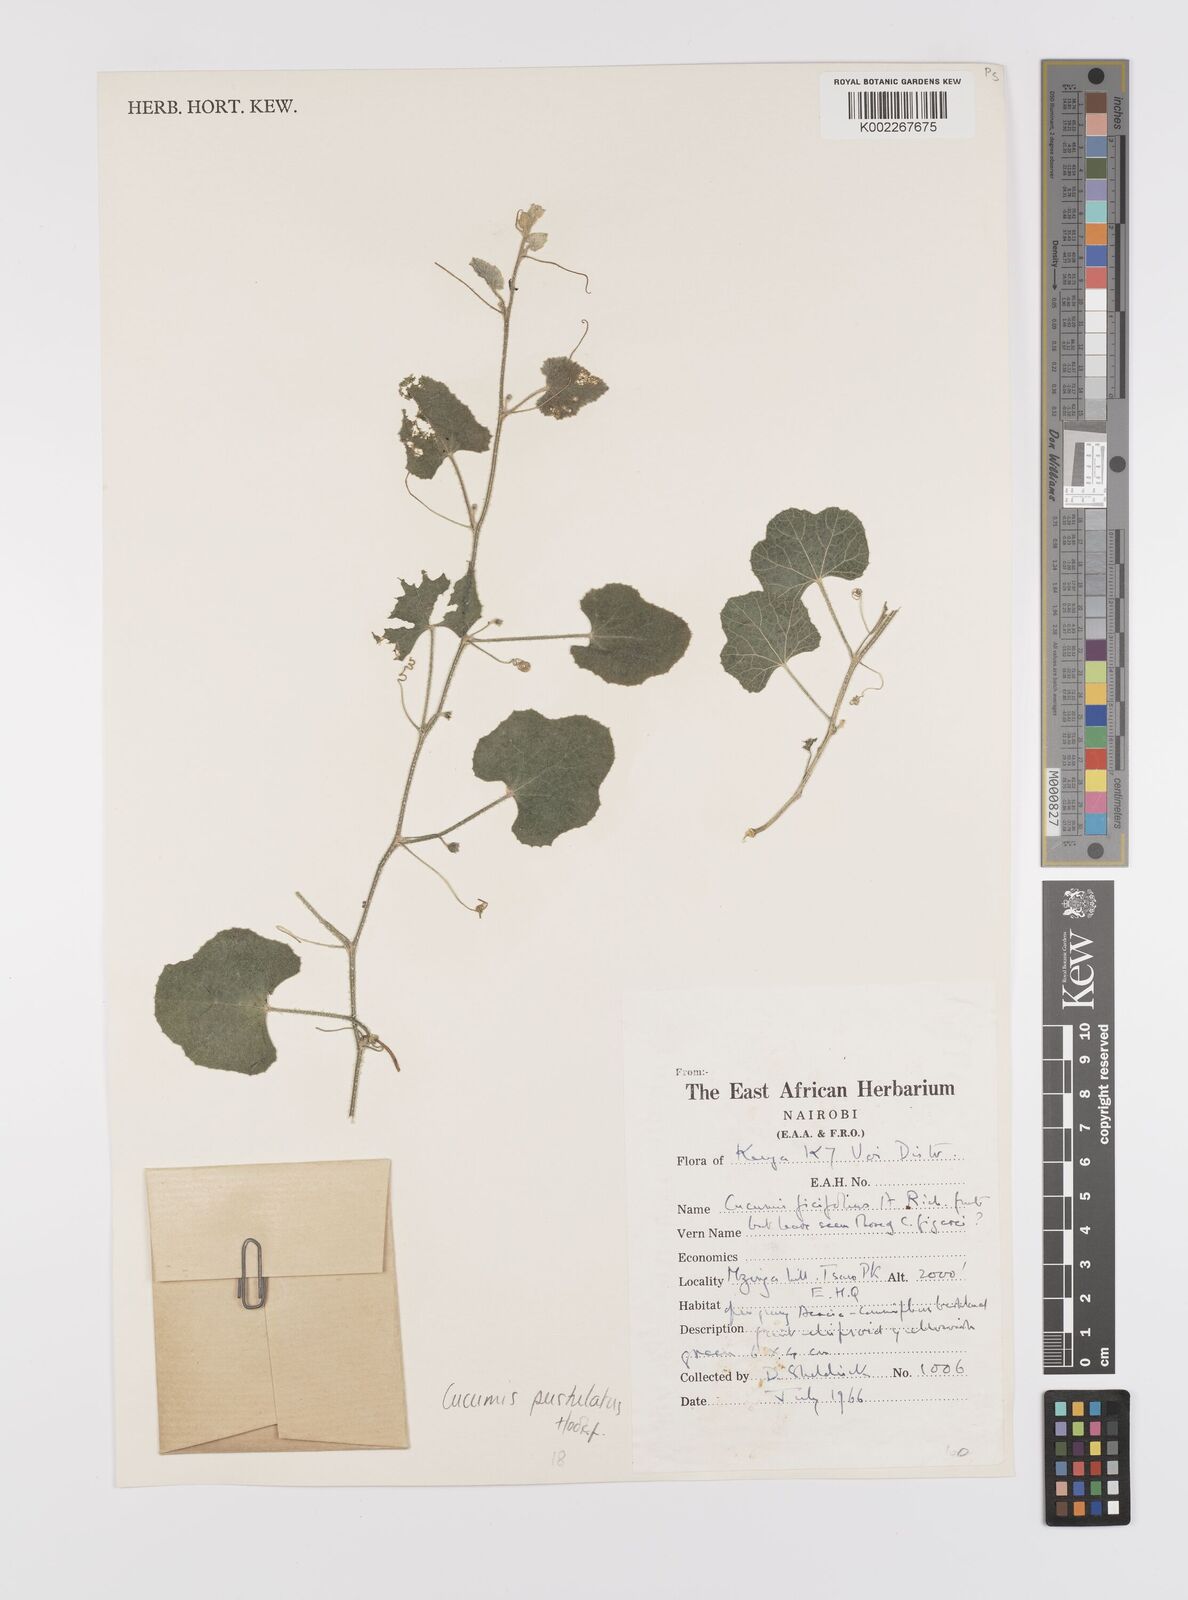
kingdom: Plantae
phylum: Tracheophyta
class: Magnoliopsida
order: Cucurbitales
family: Cucurbitaceae
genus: Cucumis
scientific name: Cucumis
